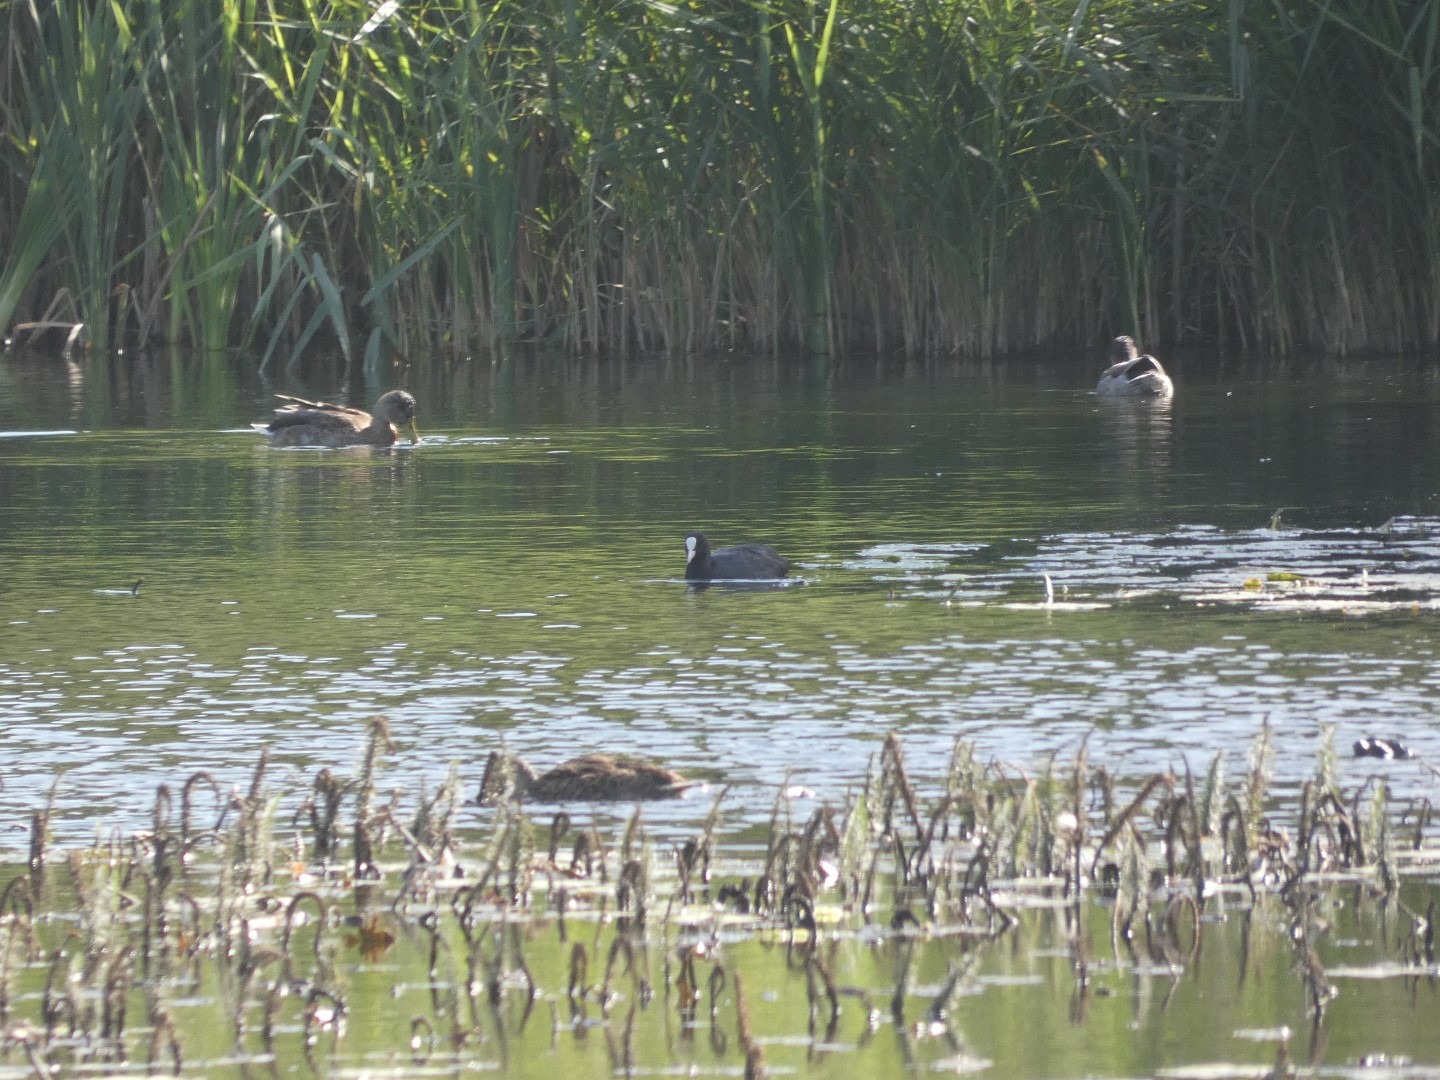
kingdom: Animalia
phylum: Chordata
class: Aves
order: Anseriformes
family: Anatidae
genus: Anas
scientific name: Anas platyrhynchos
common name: Gråand
